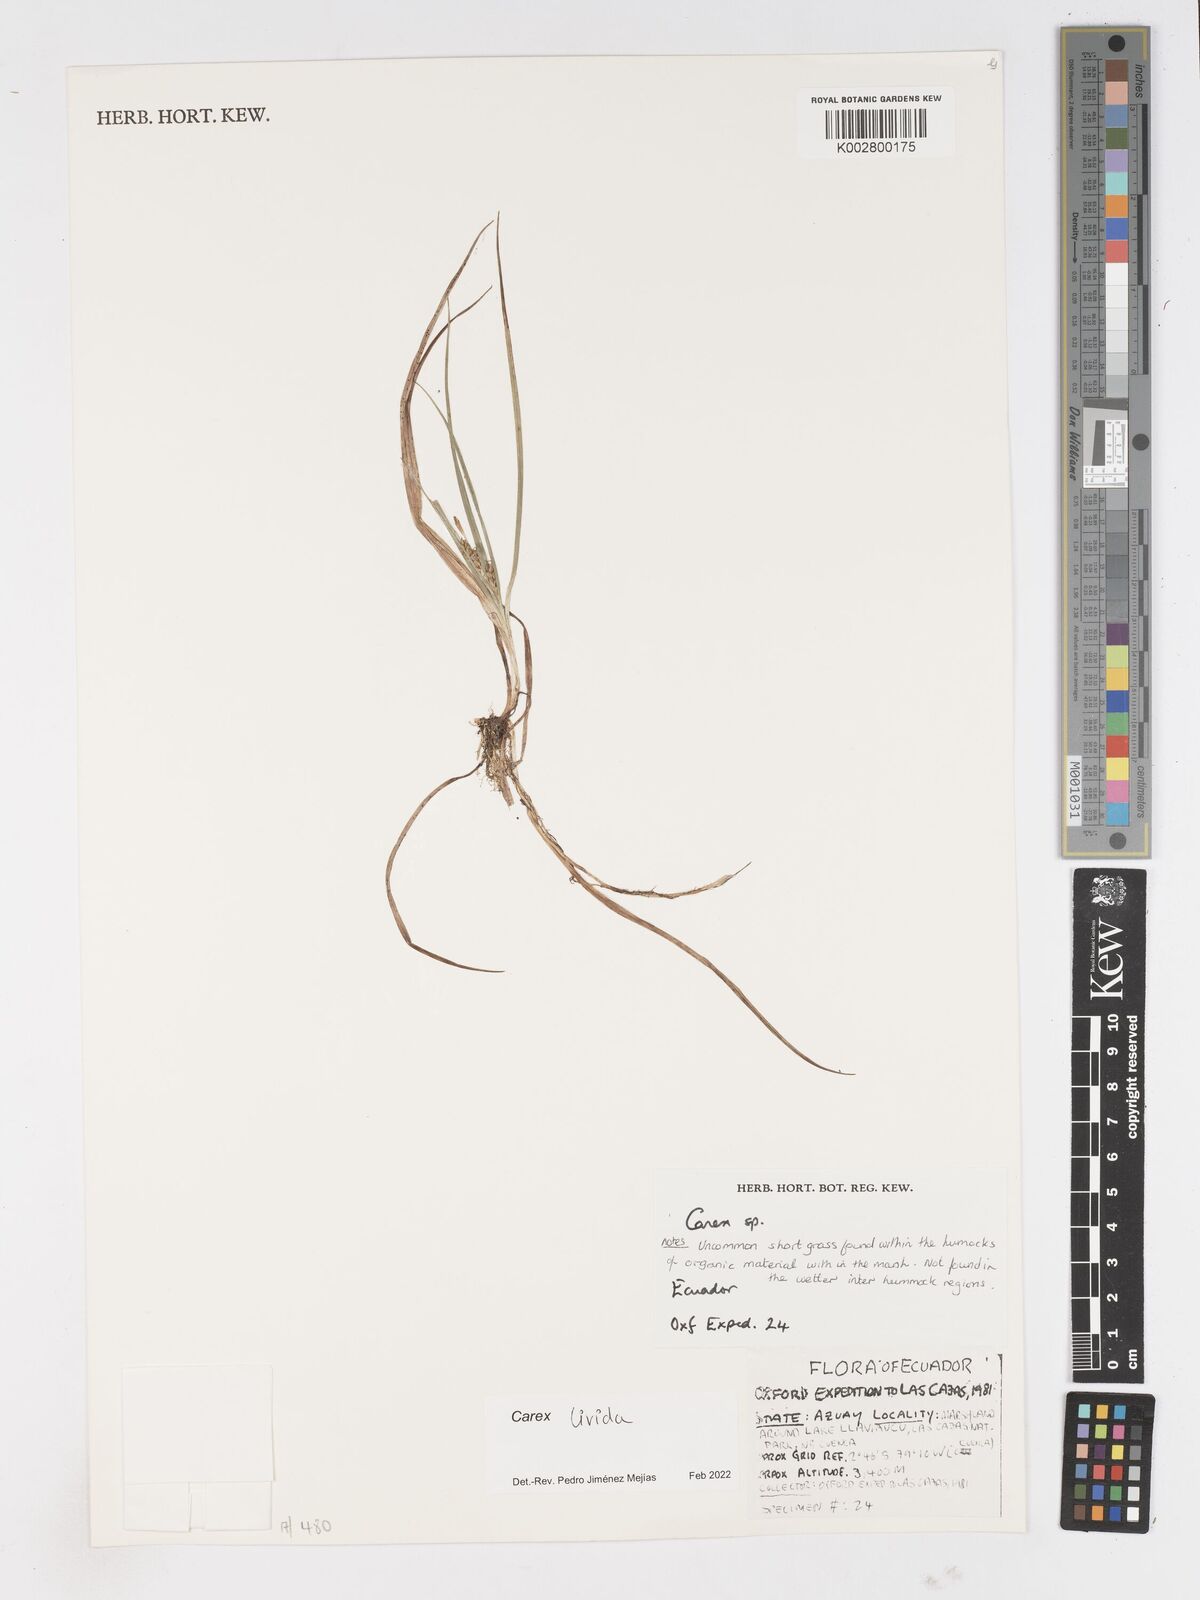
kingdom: Plantae
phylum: Tracheophyta
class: Liliopsida
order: Poales
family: Cyperaceae
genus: Carex
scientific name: Carex livida
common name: Livid sedge
